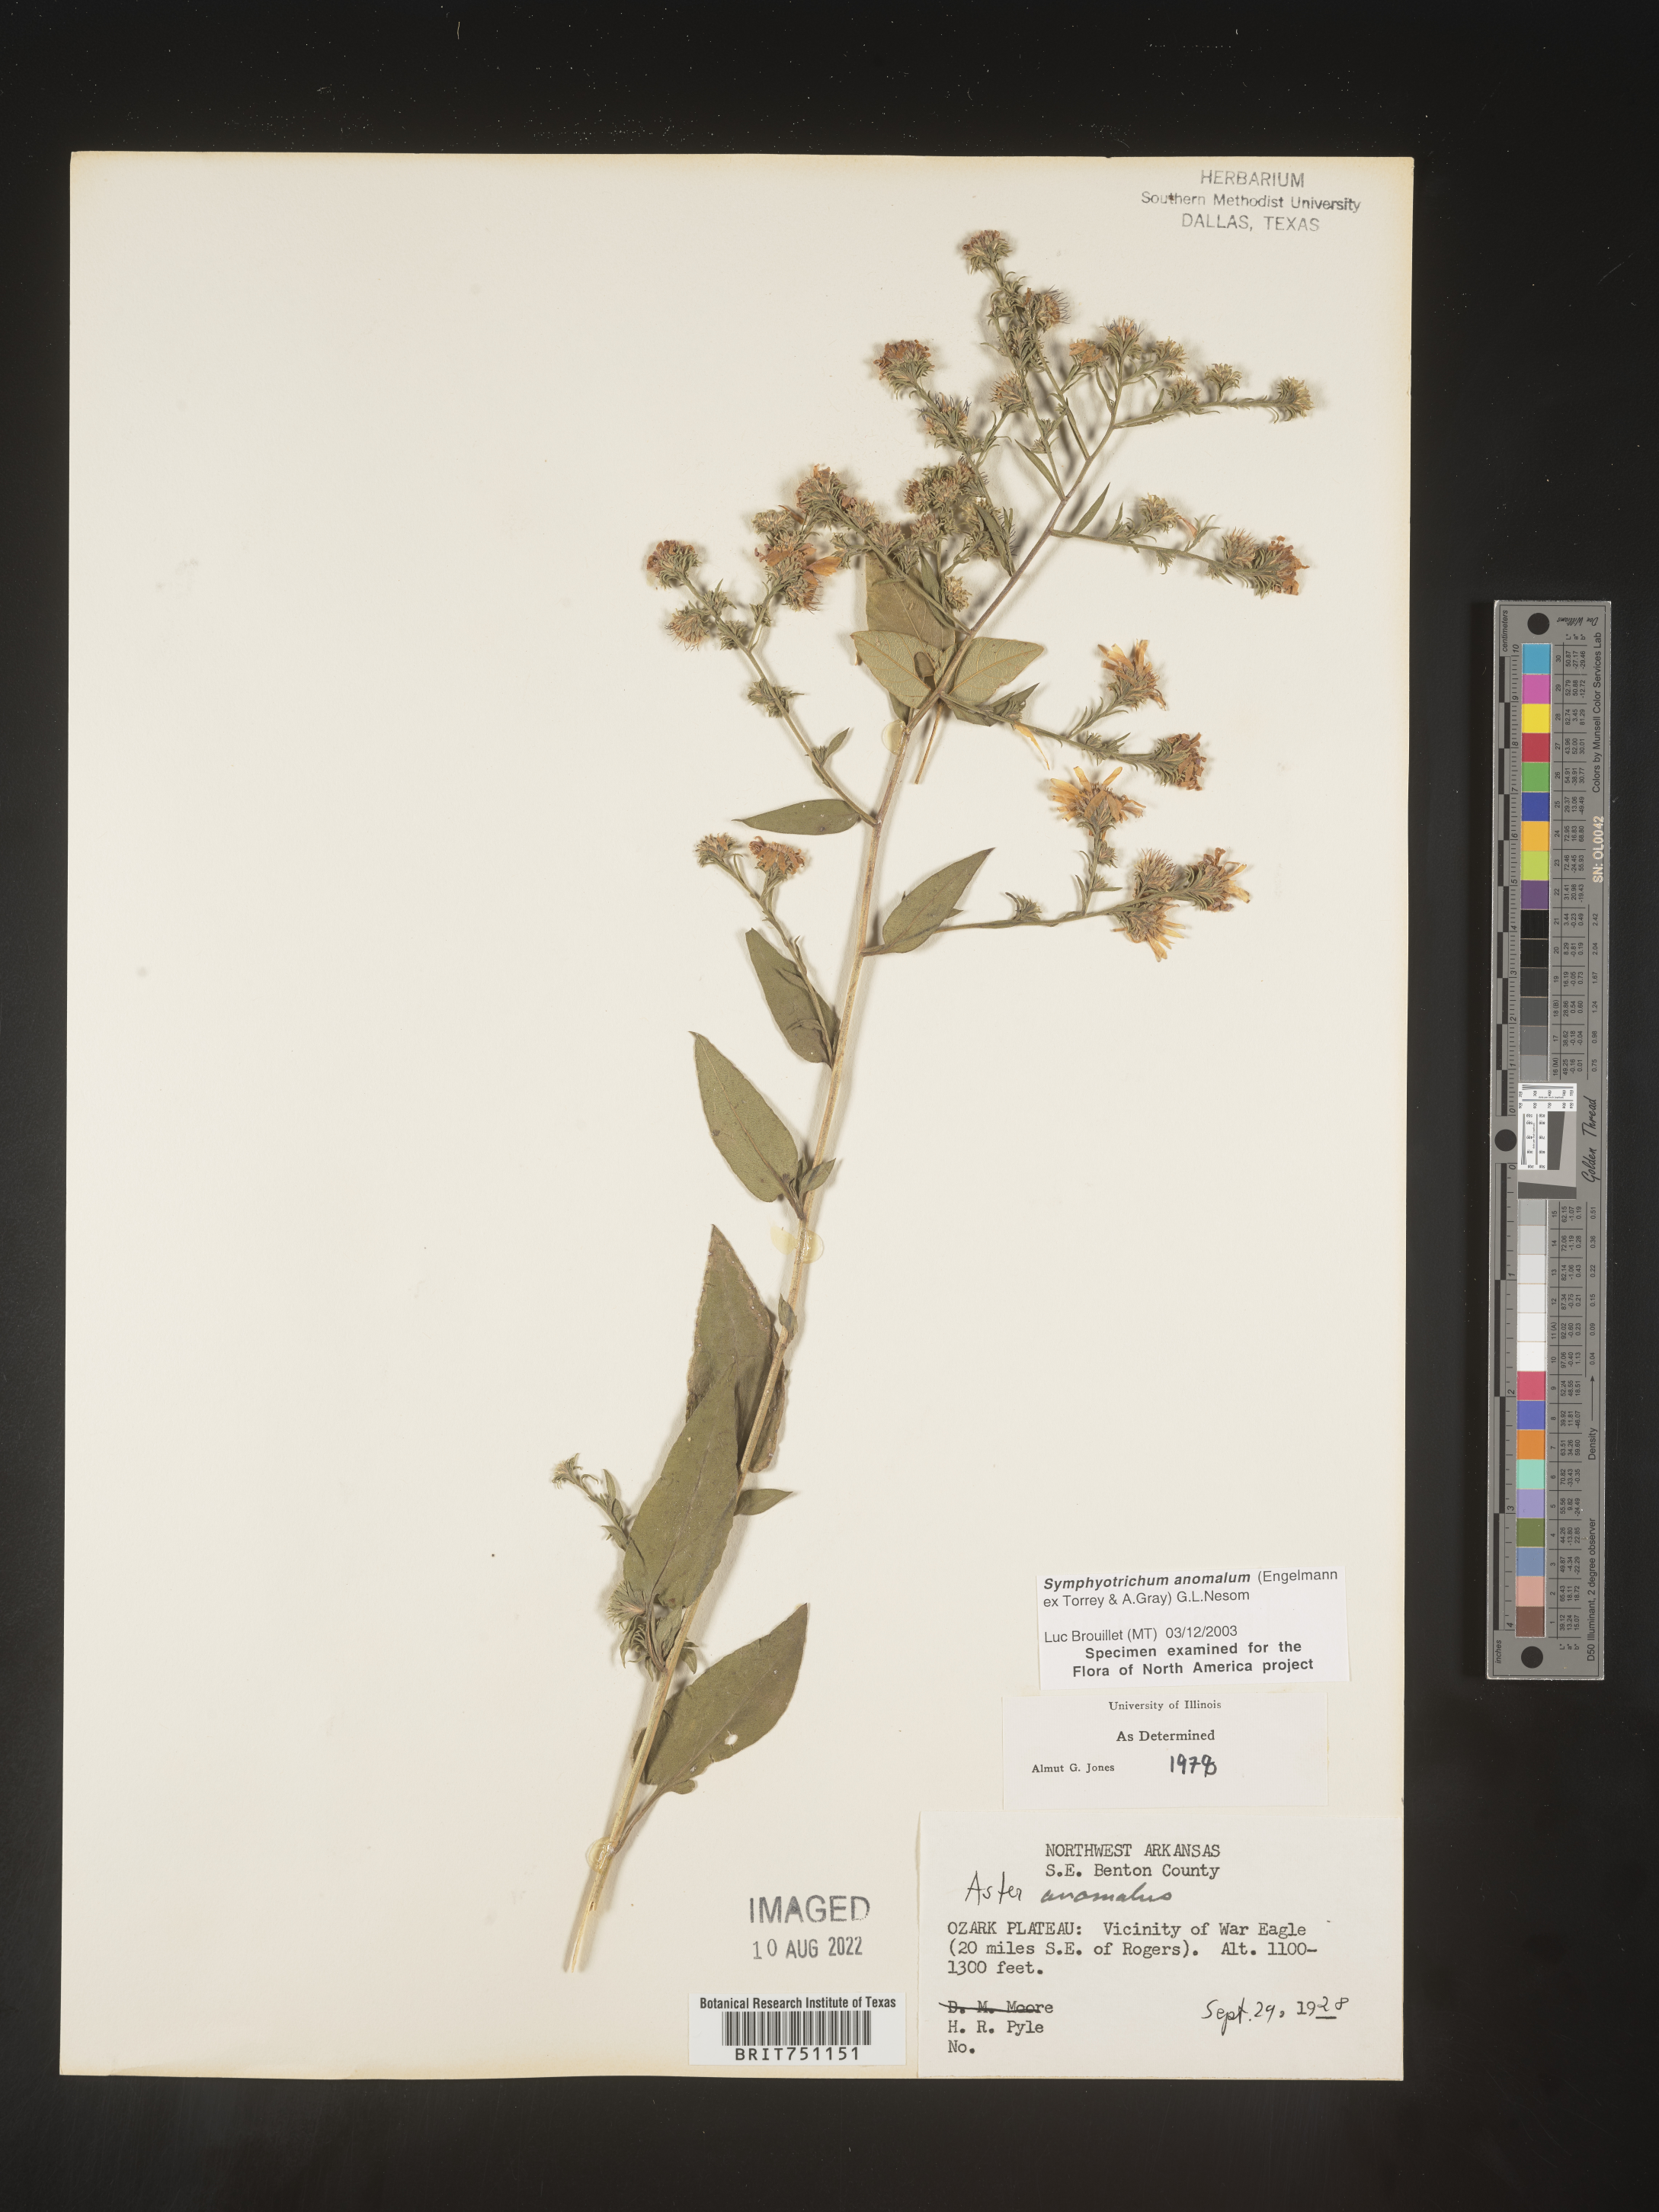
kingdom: Plantae
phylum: Tracheophyta
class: Magnoliopsida
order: Asterales
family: Asteraceae
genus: Symphyotrichum
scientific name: Symphyotrichum anomalum
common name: Many-ray aster
